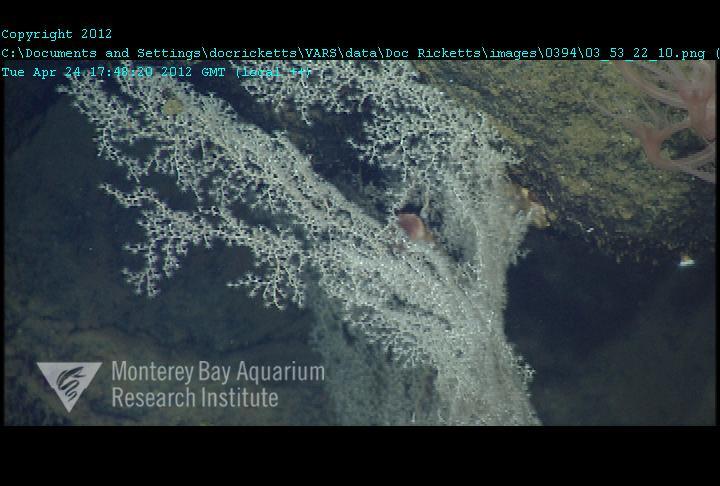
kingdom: Animalia
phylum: Cnidaria
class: Anthozoa
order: Scleralcyonacea
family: Chrysogorgiidae
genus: Chrysogorgia
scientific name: Chrysogorgia
